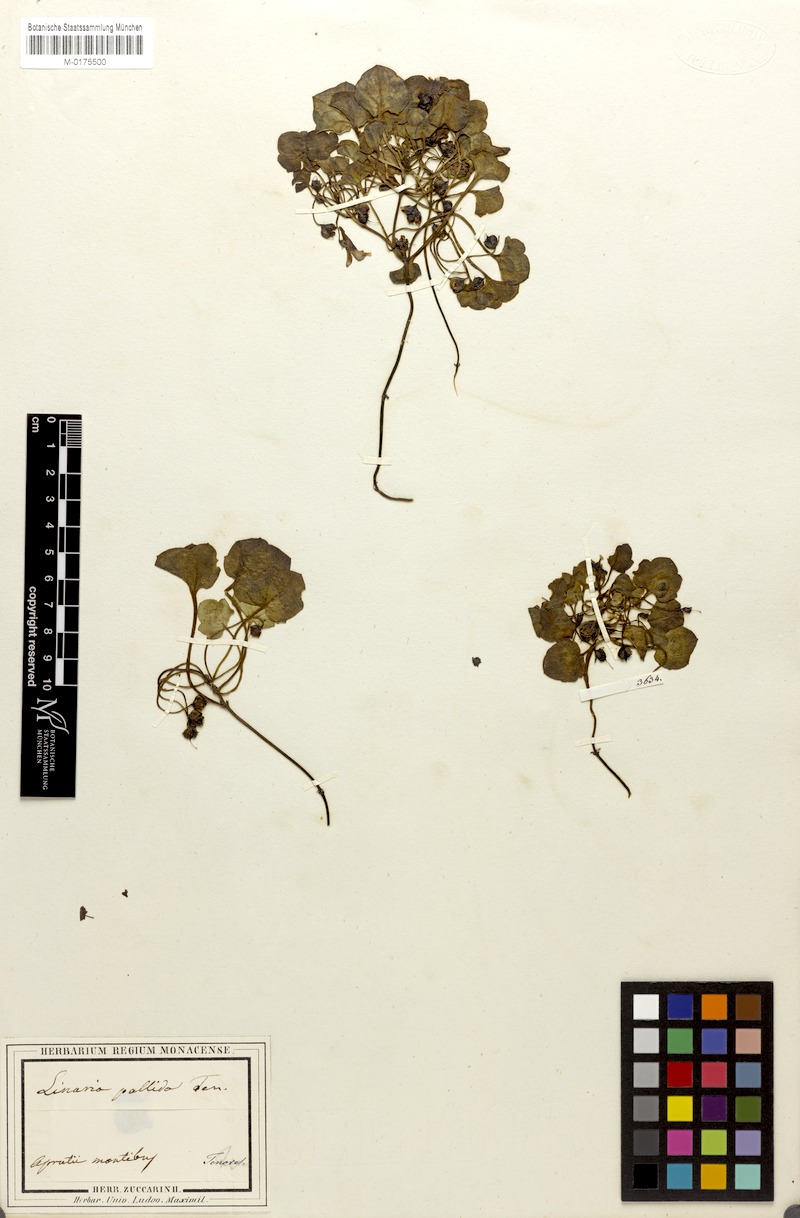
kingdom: Plantae
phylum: Tracheophyta
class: Magnoliopsida
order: Lamiales
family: Plantaginaceae
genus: Cymbalaria
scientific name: Cymbalaria pallida
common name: Italian toadflax
